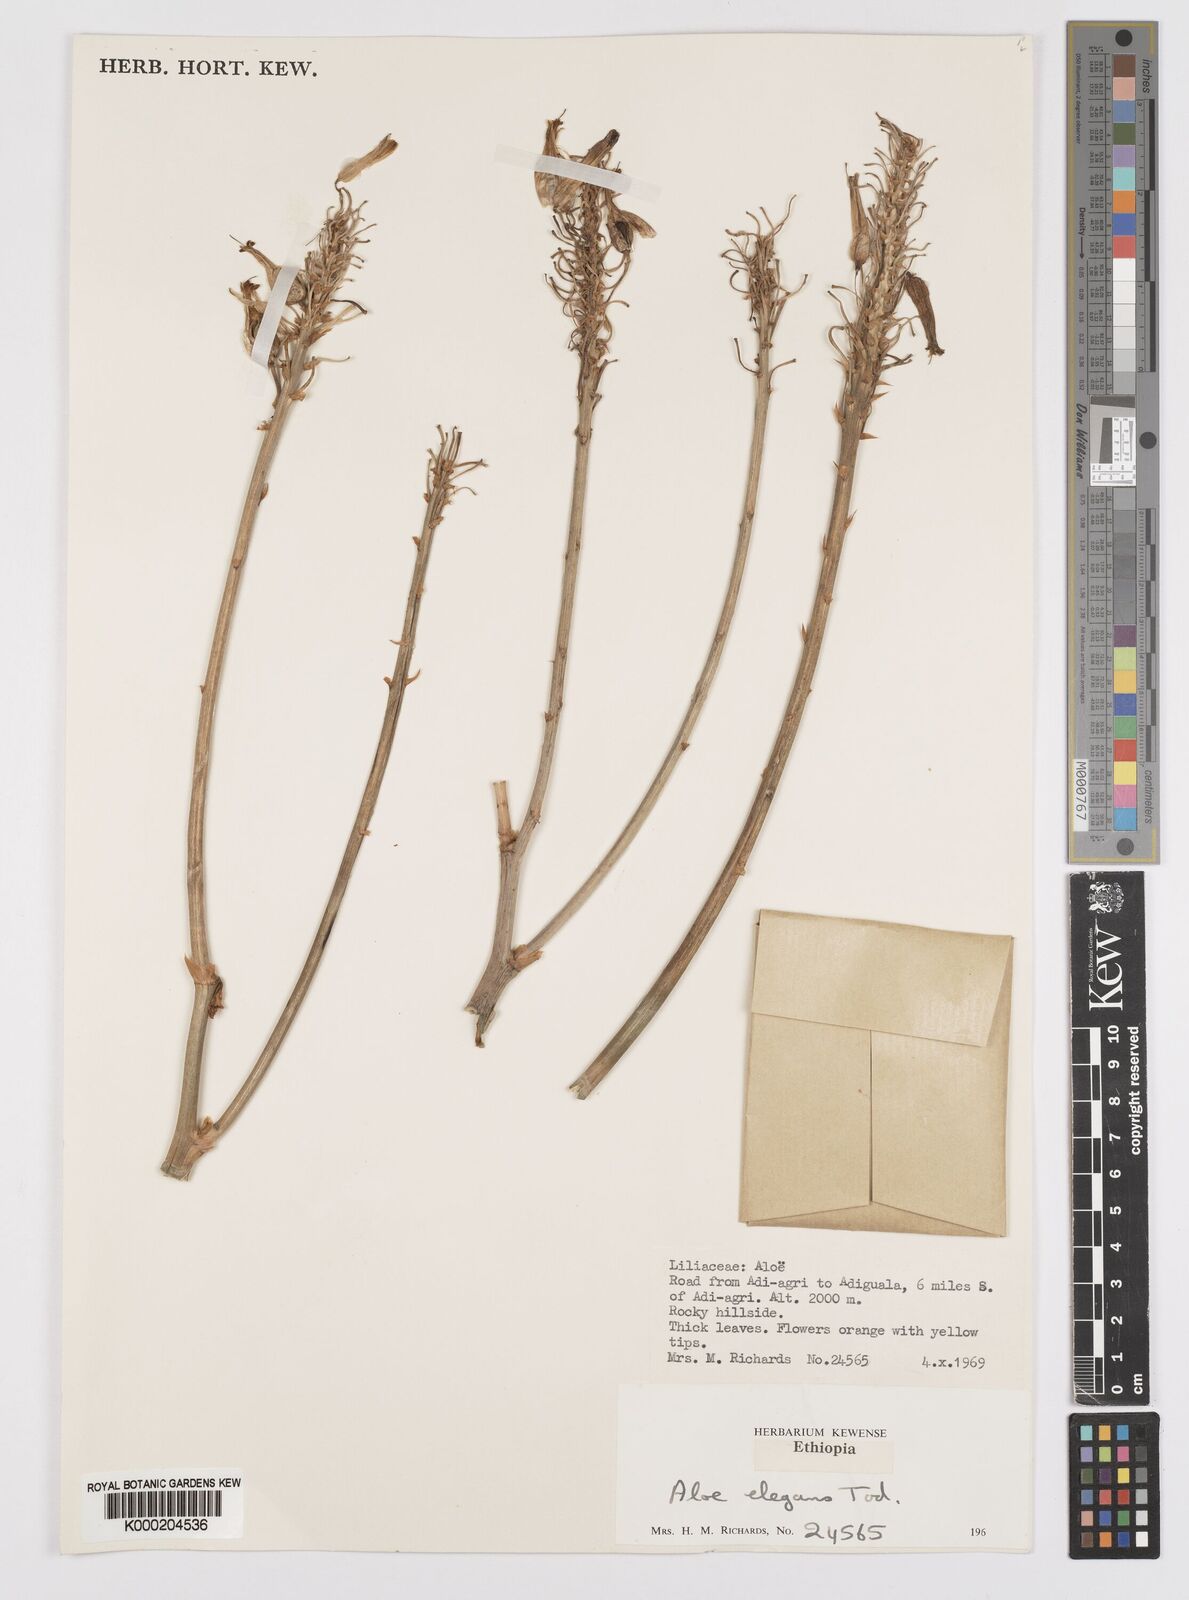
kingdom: Plantae
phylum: Tracheophyta
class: Liliopsida
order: Asparagales
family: Asphodelaceae
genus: Aloe
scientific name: Aloe elegans
